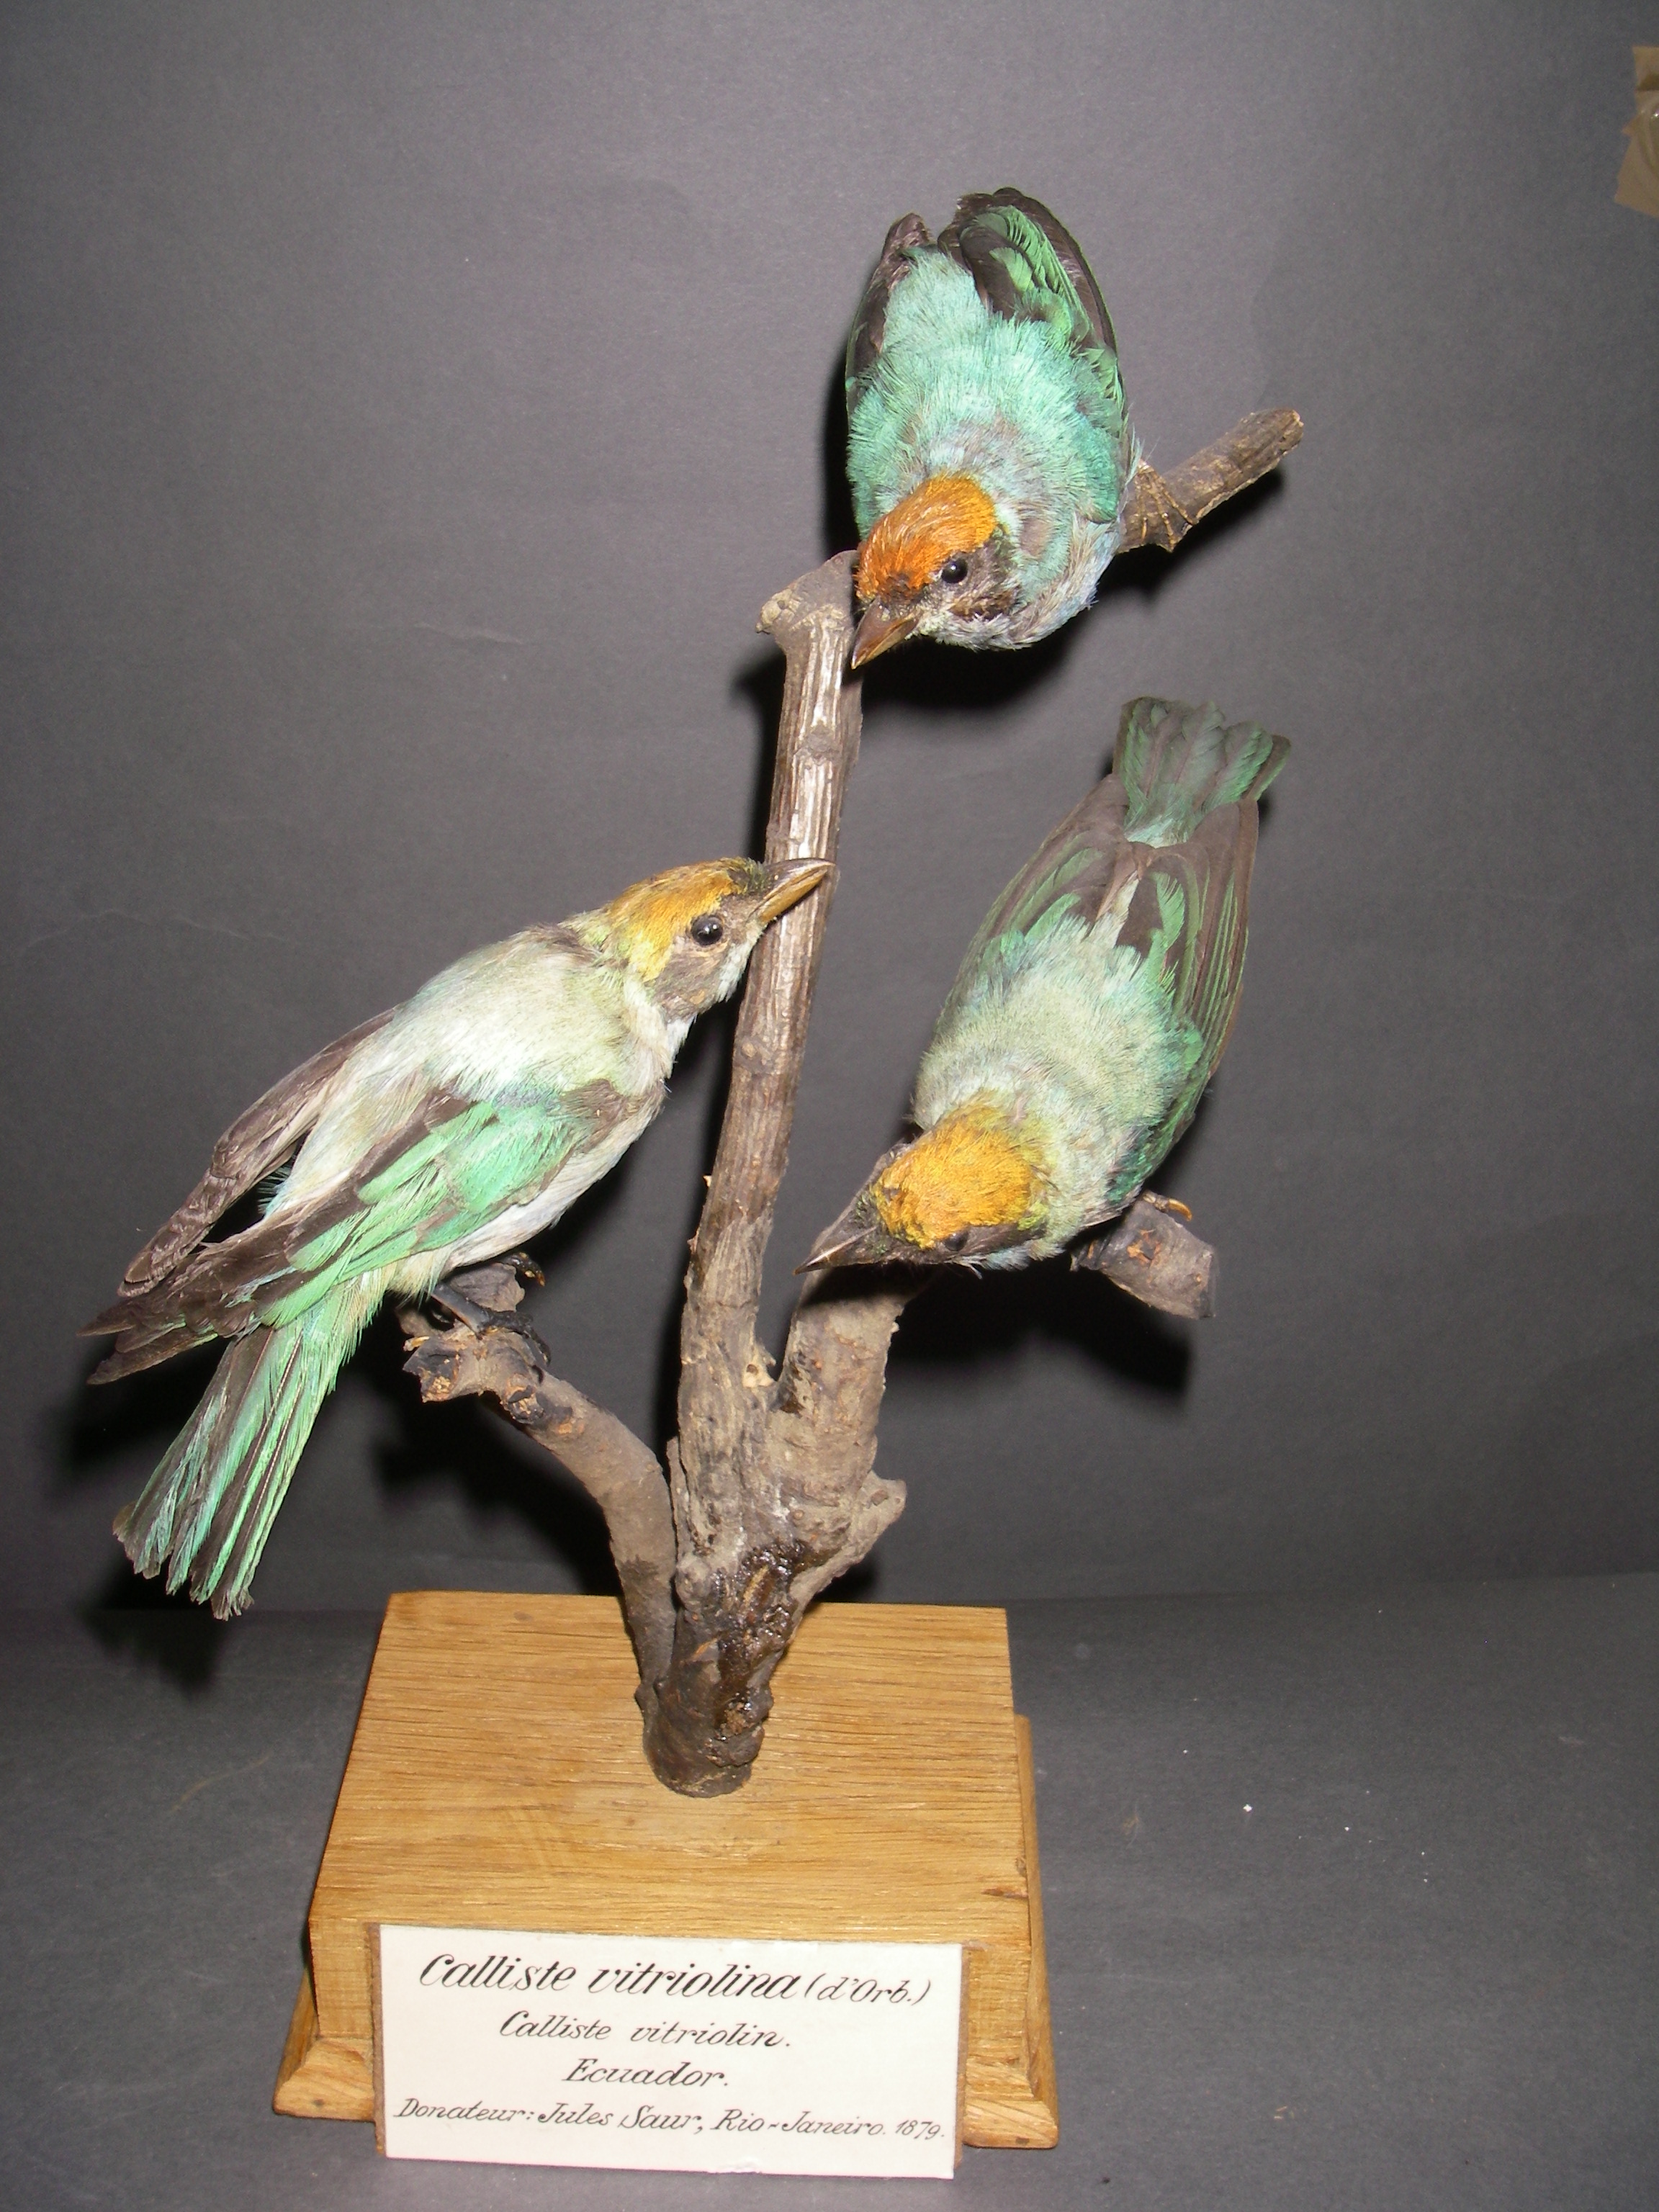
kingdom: Animalia
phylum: Chordata
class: Aves
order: Passeriformes
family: Thraupidae
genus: Stilpnia
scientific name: Stilpnia vitriolina
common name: Scrub tanager
